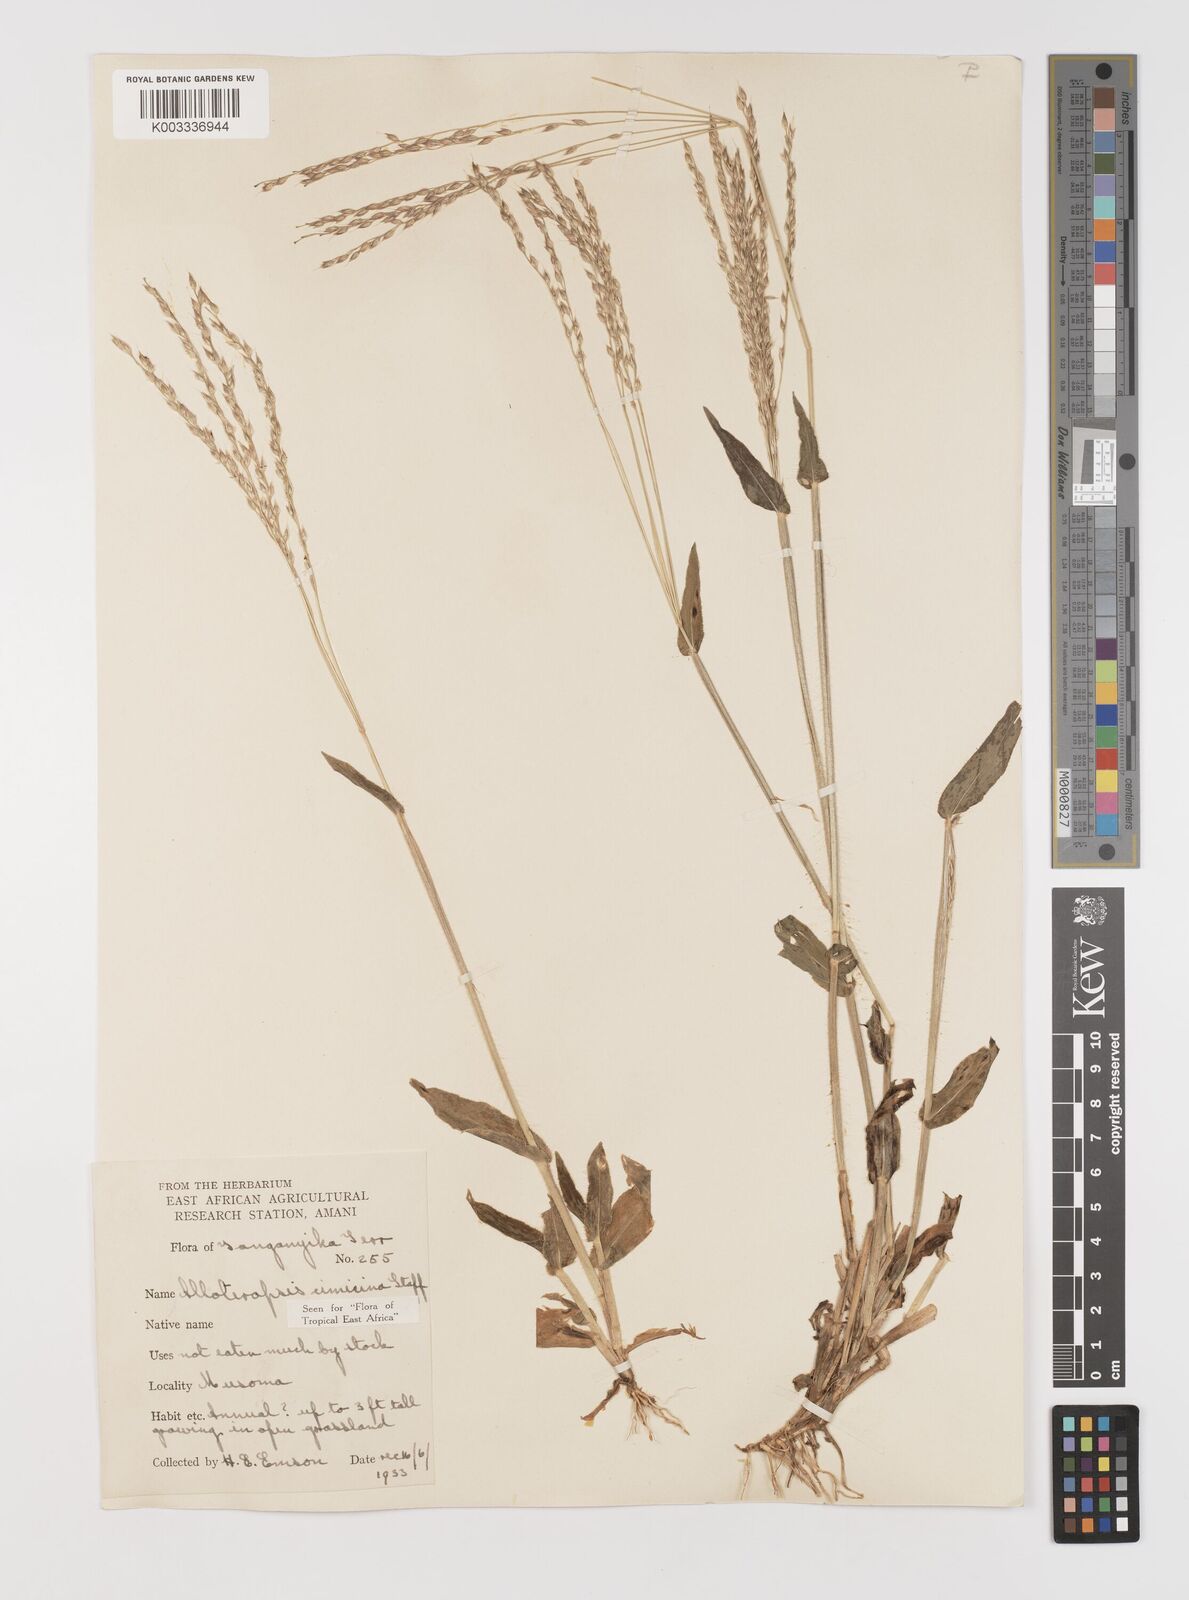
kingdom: Plantae
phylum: Tracheophyta
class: Liliopsida
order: Poales
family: Poaceae
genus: Alloteropsis
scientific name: Alloteropsis cimicina
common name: Summergrass
